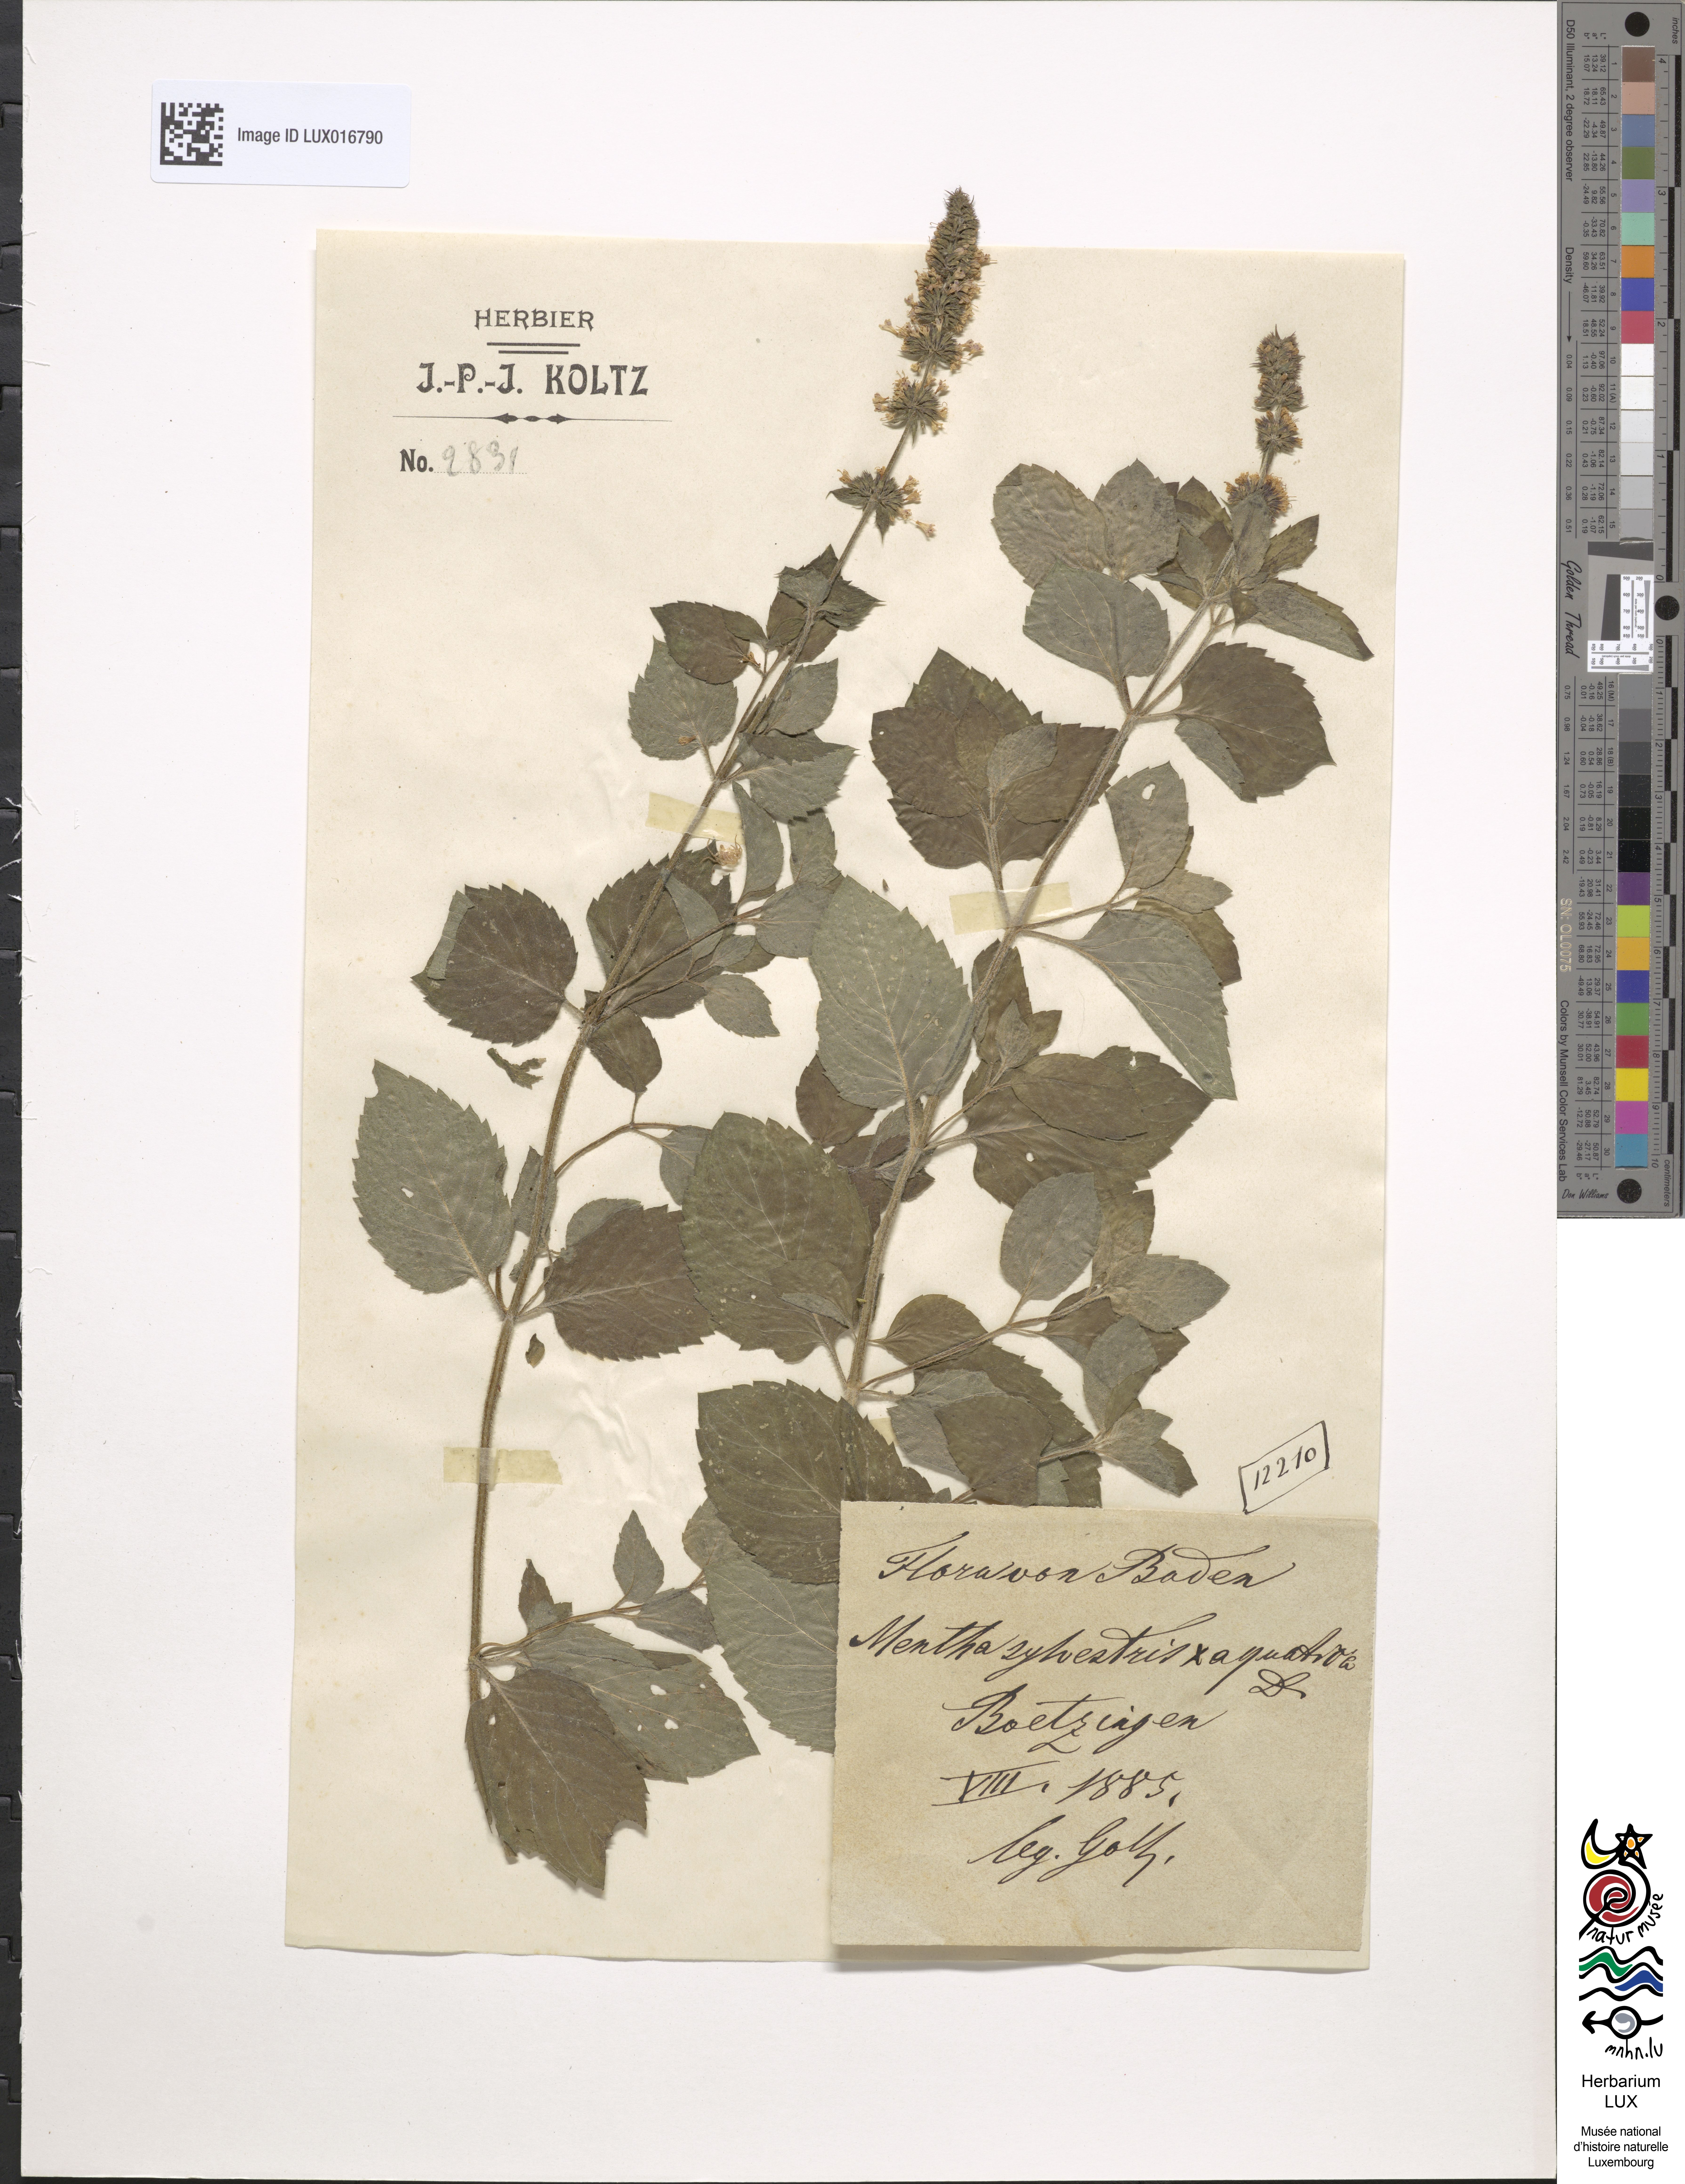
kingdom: Plantae
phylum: Tracheophyta
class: Magnoliopsida
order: Lamiales
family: Lamiaceae
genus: Mentha
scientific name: Mentha dumetorum
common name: Bush-loving mint
